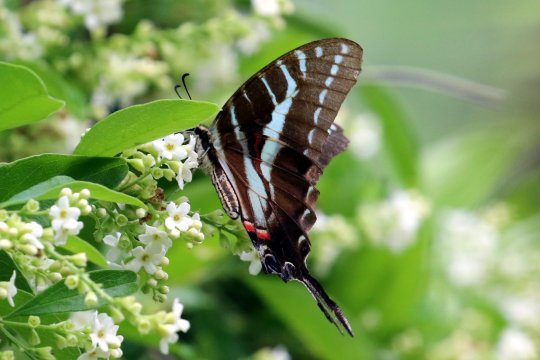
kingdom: Animalia
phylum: Arthropoda
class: Insecta
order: Lepidoptera
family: Papilionidae
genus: Protographium
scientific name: Protographium philolaus
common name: Dark Zebra Swallowtail
